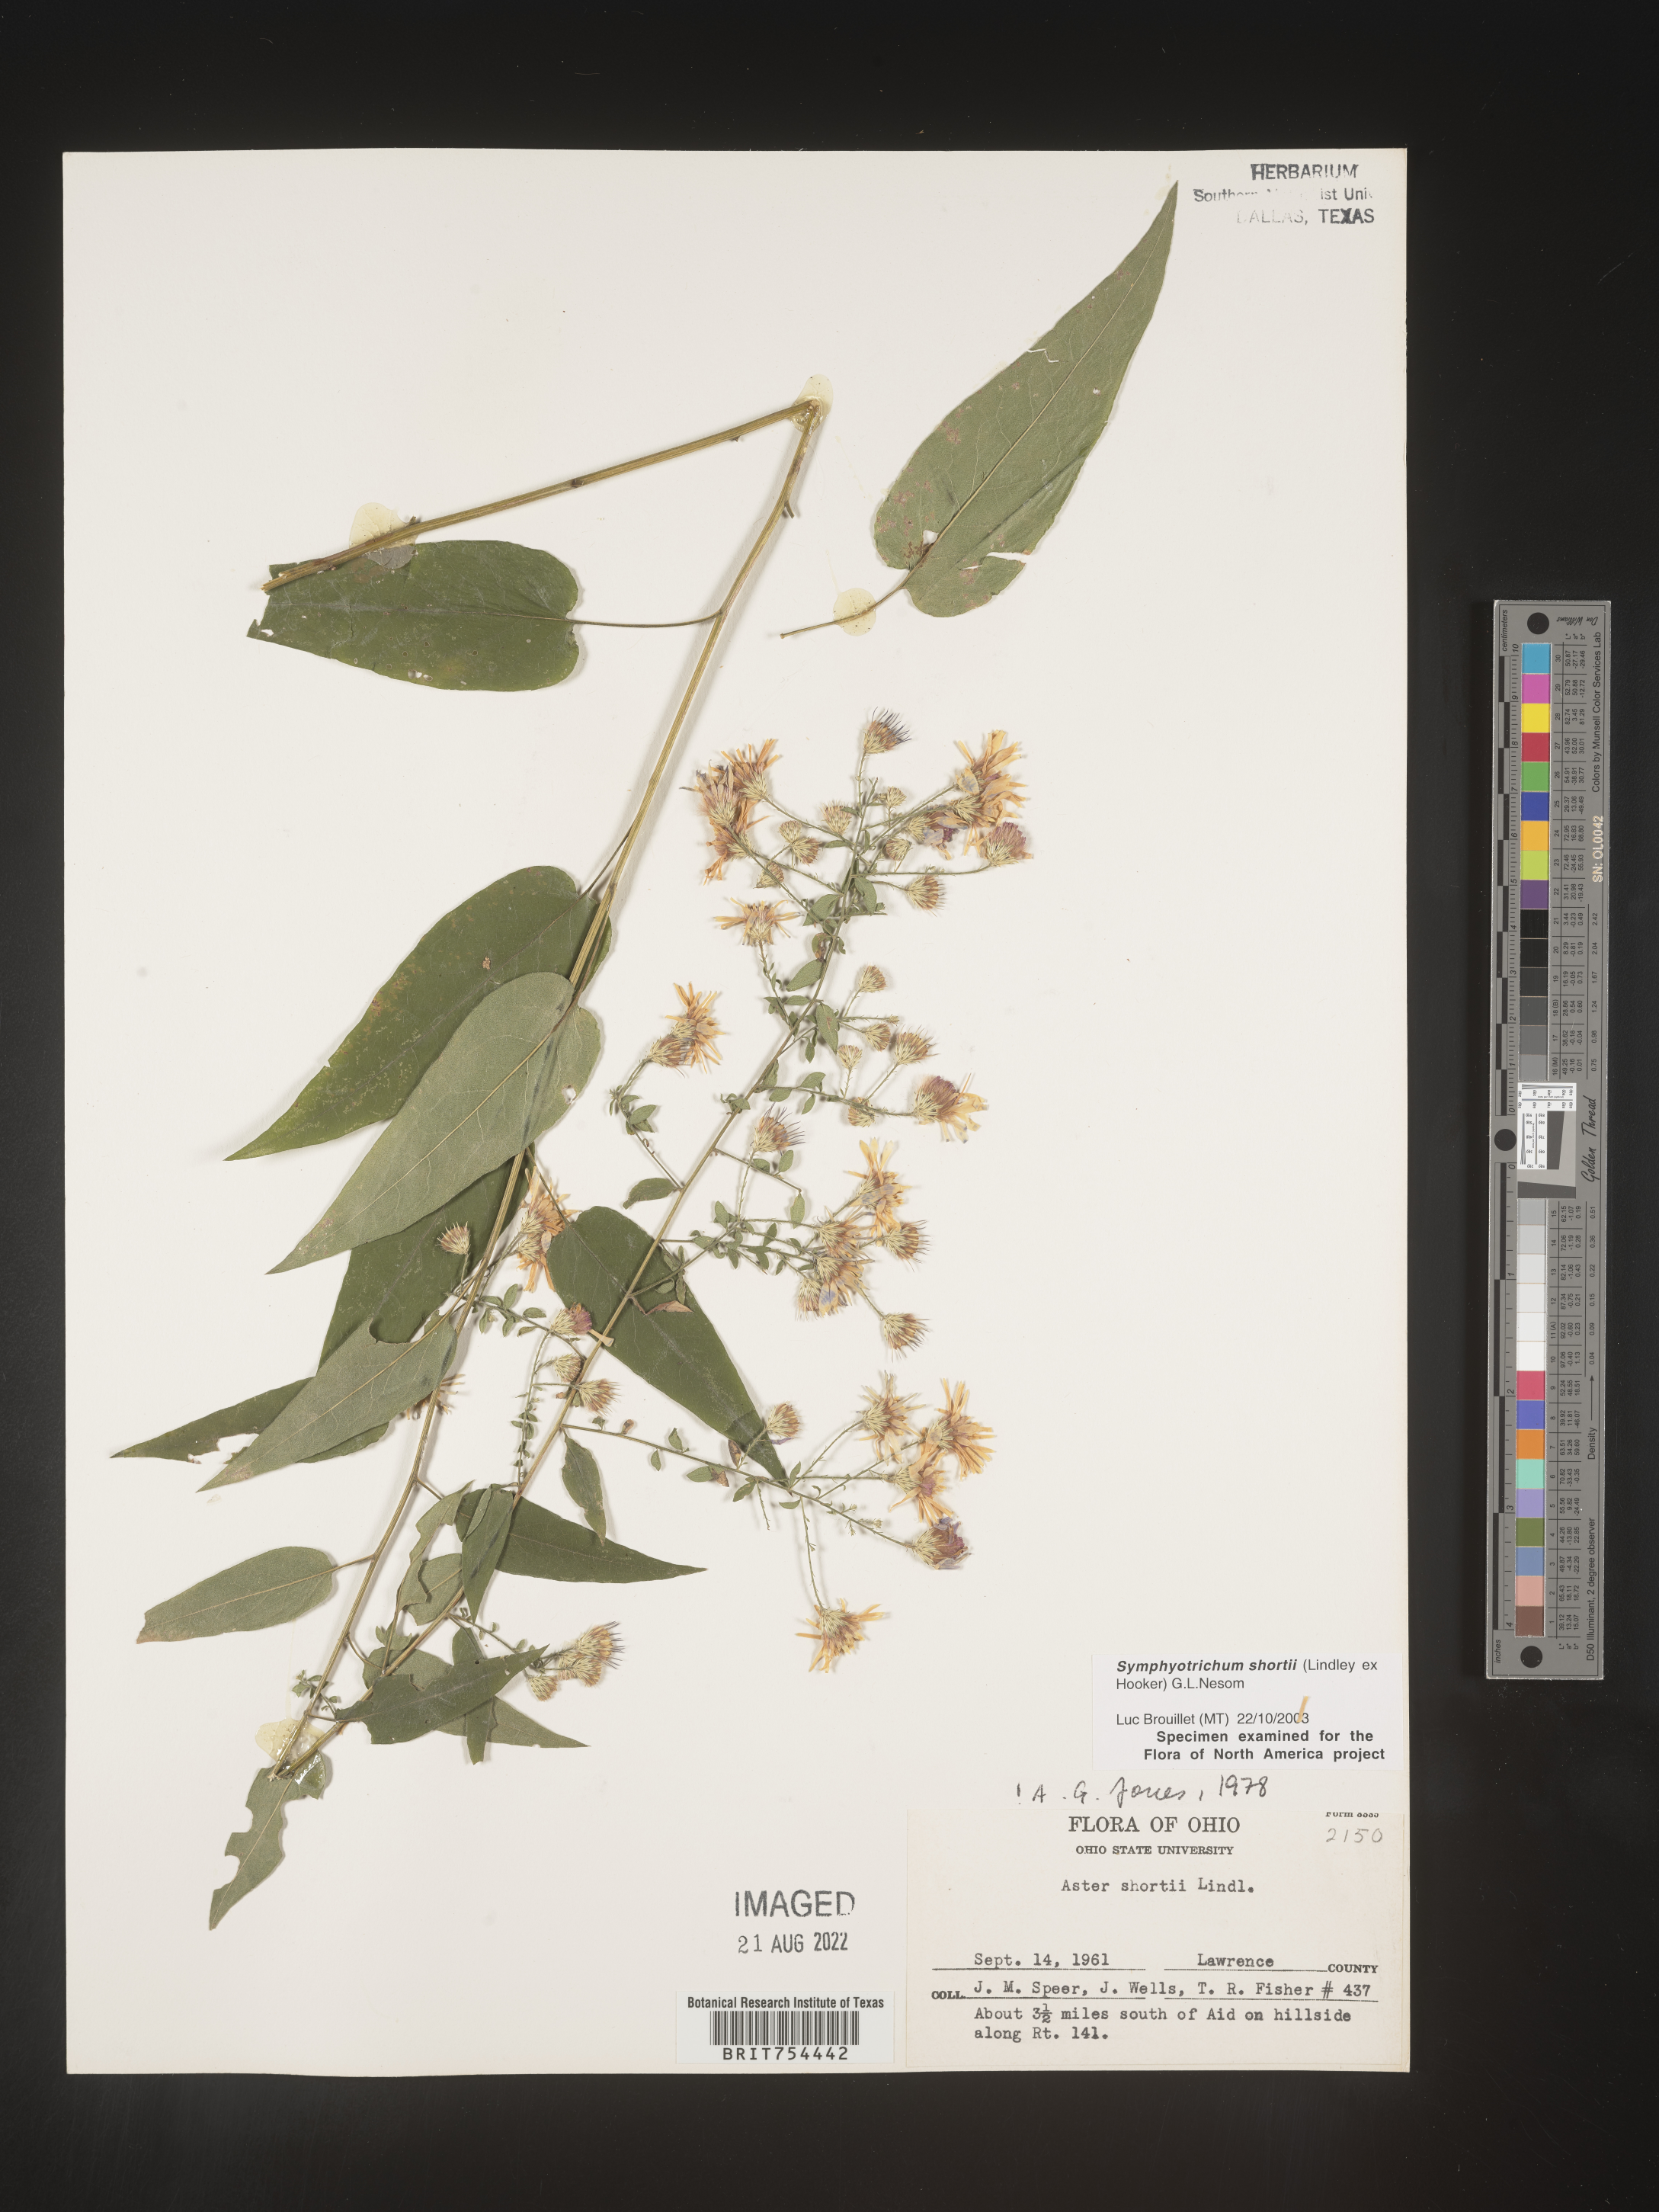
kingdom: Plantae
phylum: Tracheophyta
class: Magnoliopsida
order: Asterales
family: Asteraceae
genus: Symphyotrichum
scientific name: Symphyotrichum shortii
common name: Short's aster
